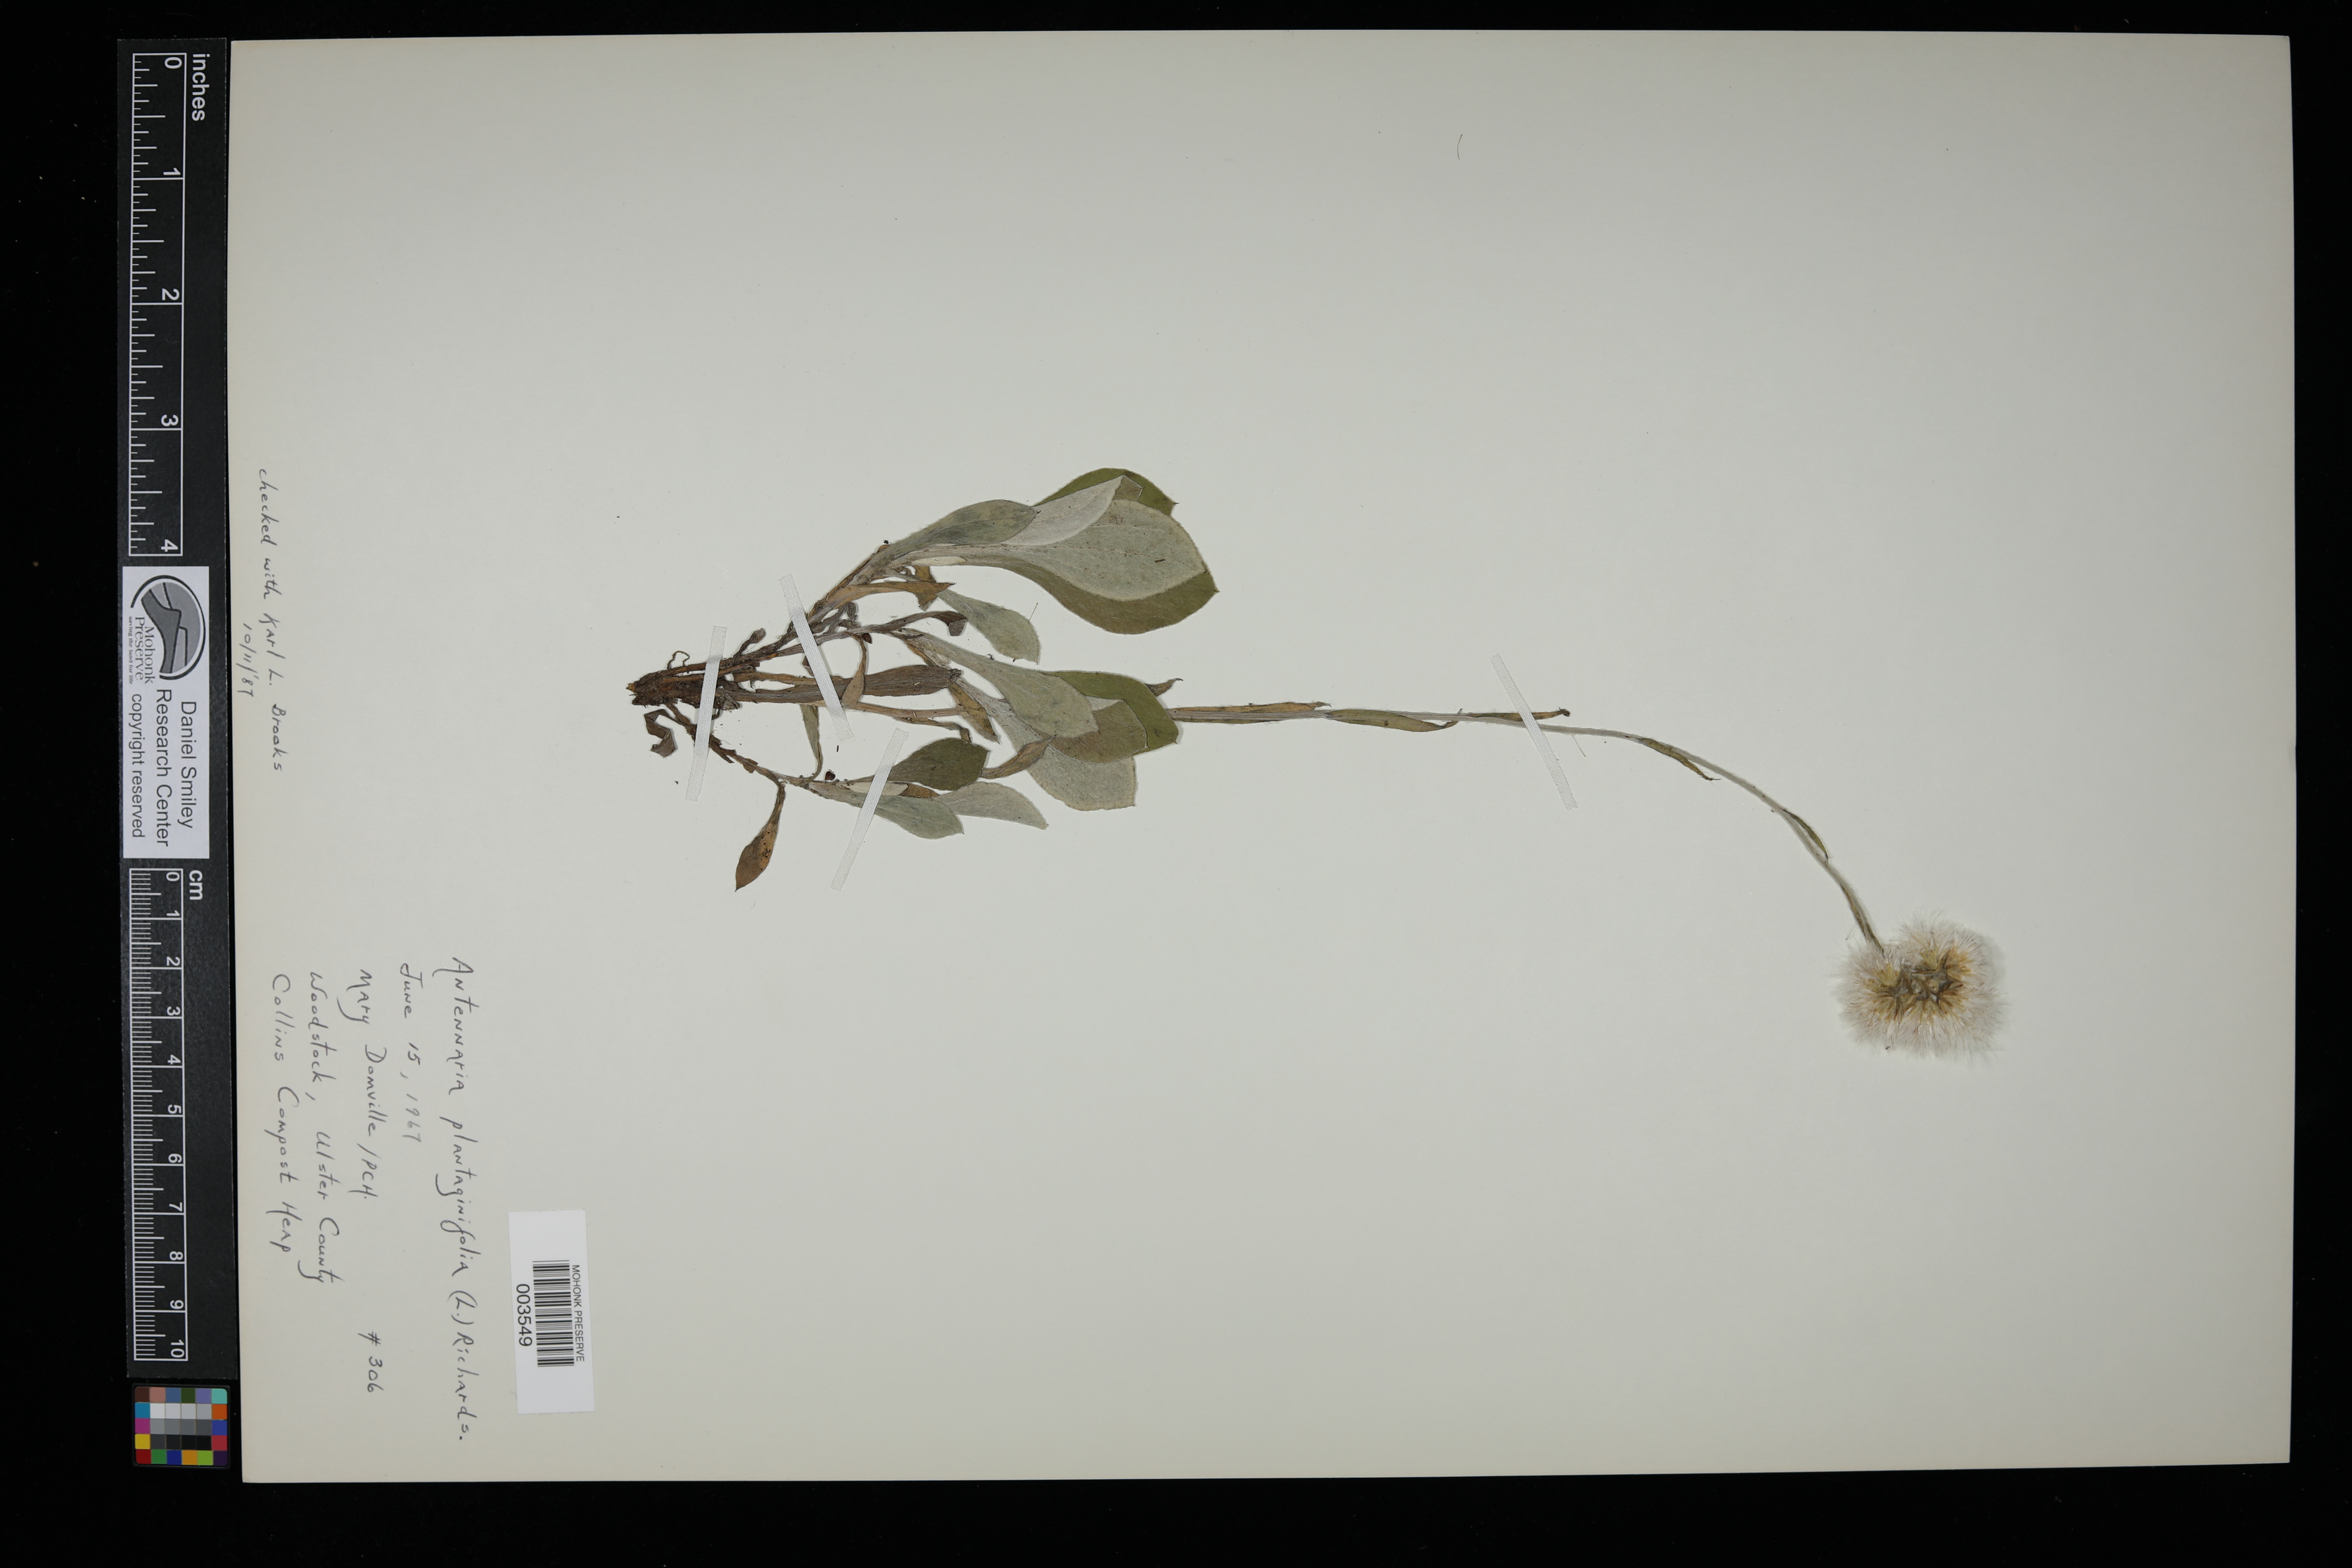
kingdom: Plantae
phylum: Tracheophyta
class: Magnoliopsida
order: Asterales
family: Asteraceae
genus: Antennaria
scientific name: Antennaria plantaginifolia
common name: Plantain-leaved pussytoes
